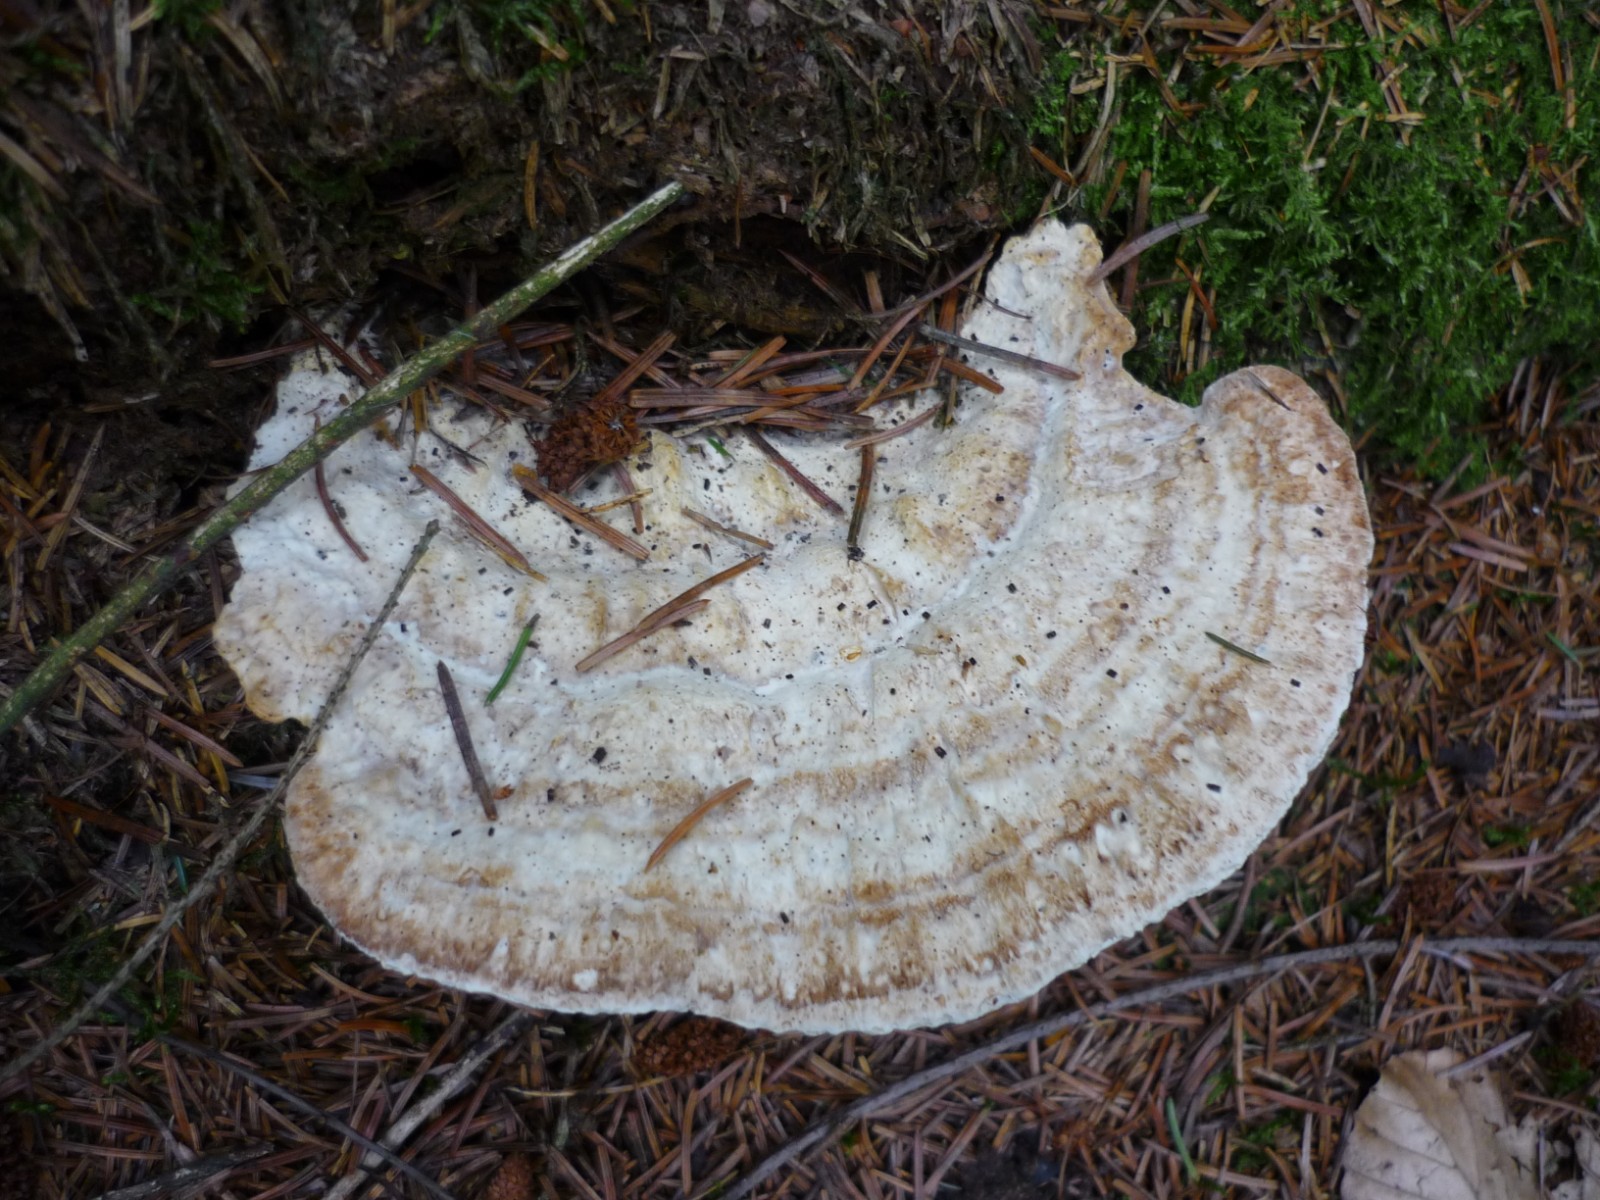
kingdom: Fungi
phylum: Basidiomycota
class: Agaricomycetes
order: Polyporales
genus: Calcipostia
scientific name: Calcipostia guttulata
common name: dråbe-kødporesvamp
